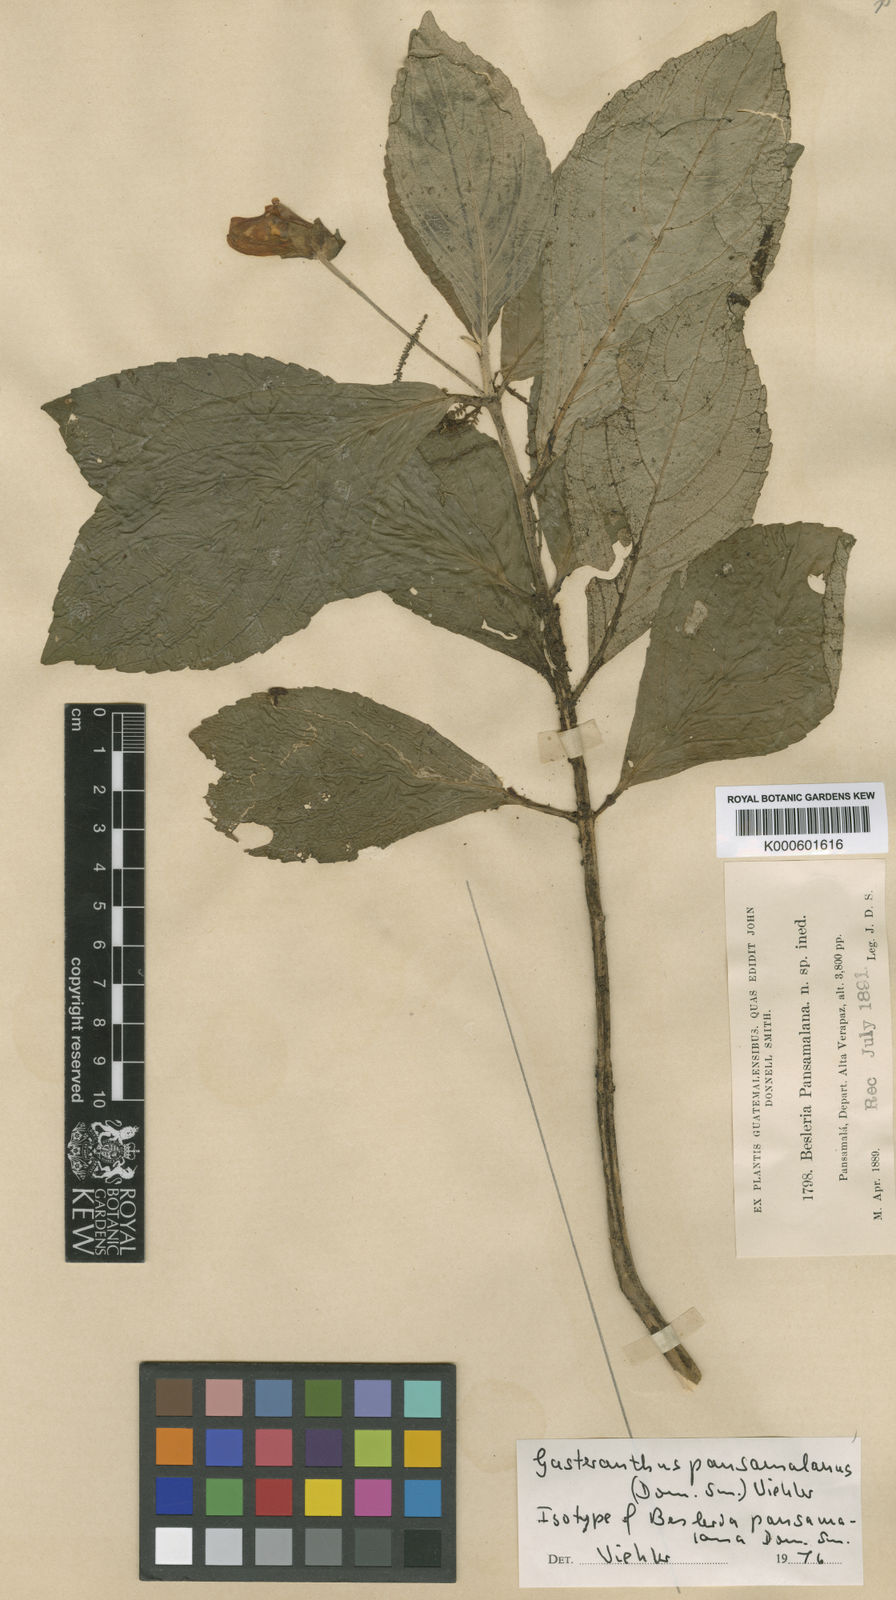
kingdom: Plantae
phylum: Tracheophyta
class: Magnoliopsida
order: Lamiales
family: Gesneriaceae
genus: Gasteranthus
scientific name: Gasteranthus pansamalanus
